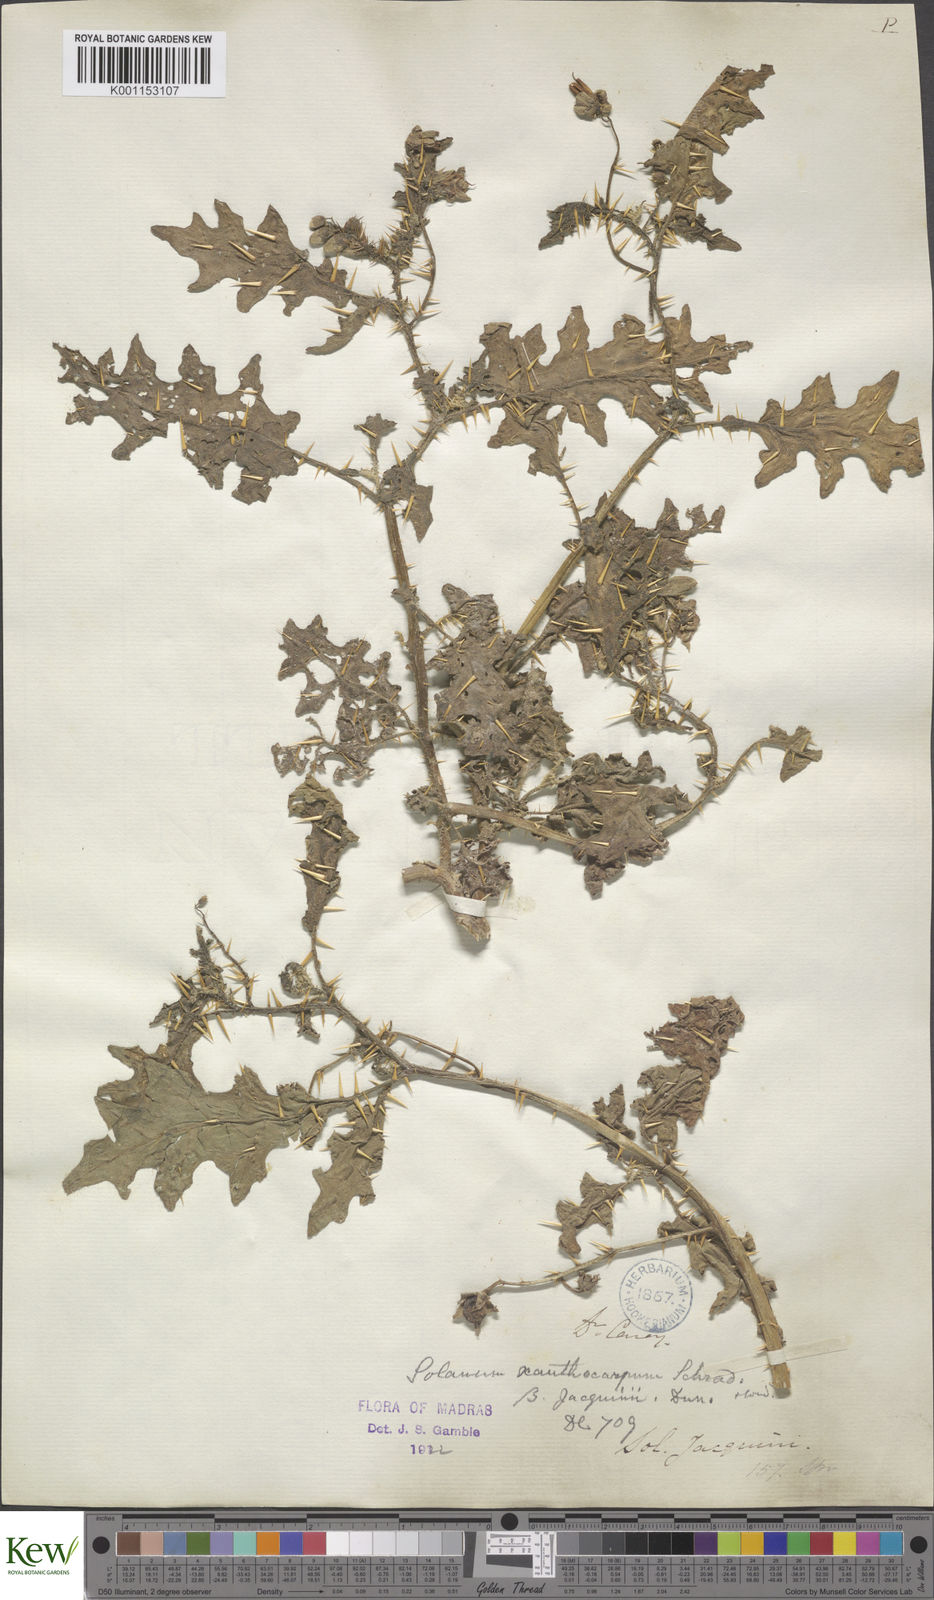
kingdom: Plantae
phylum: Tracheophyta
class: Magnoliopsida
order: Solanales
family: Solanaceae
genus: Solanum
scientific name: Solanum virginianum
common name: Surattense nightshade
